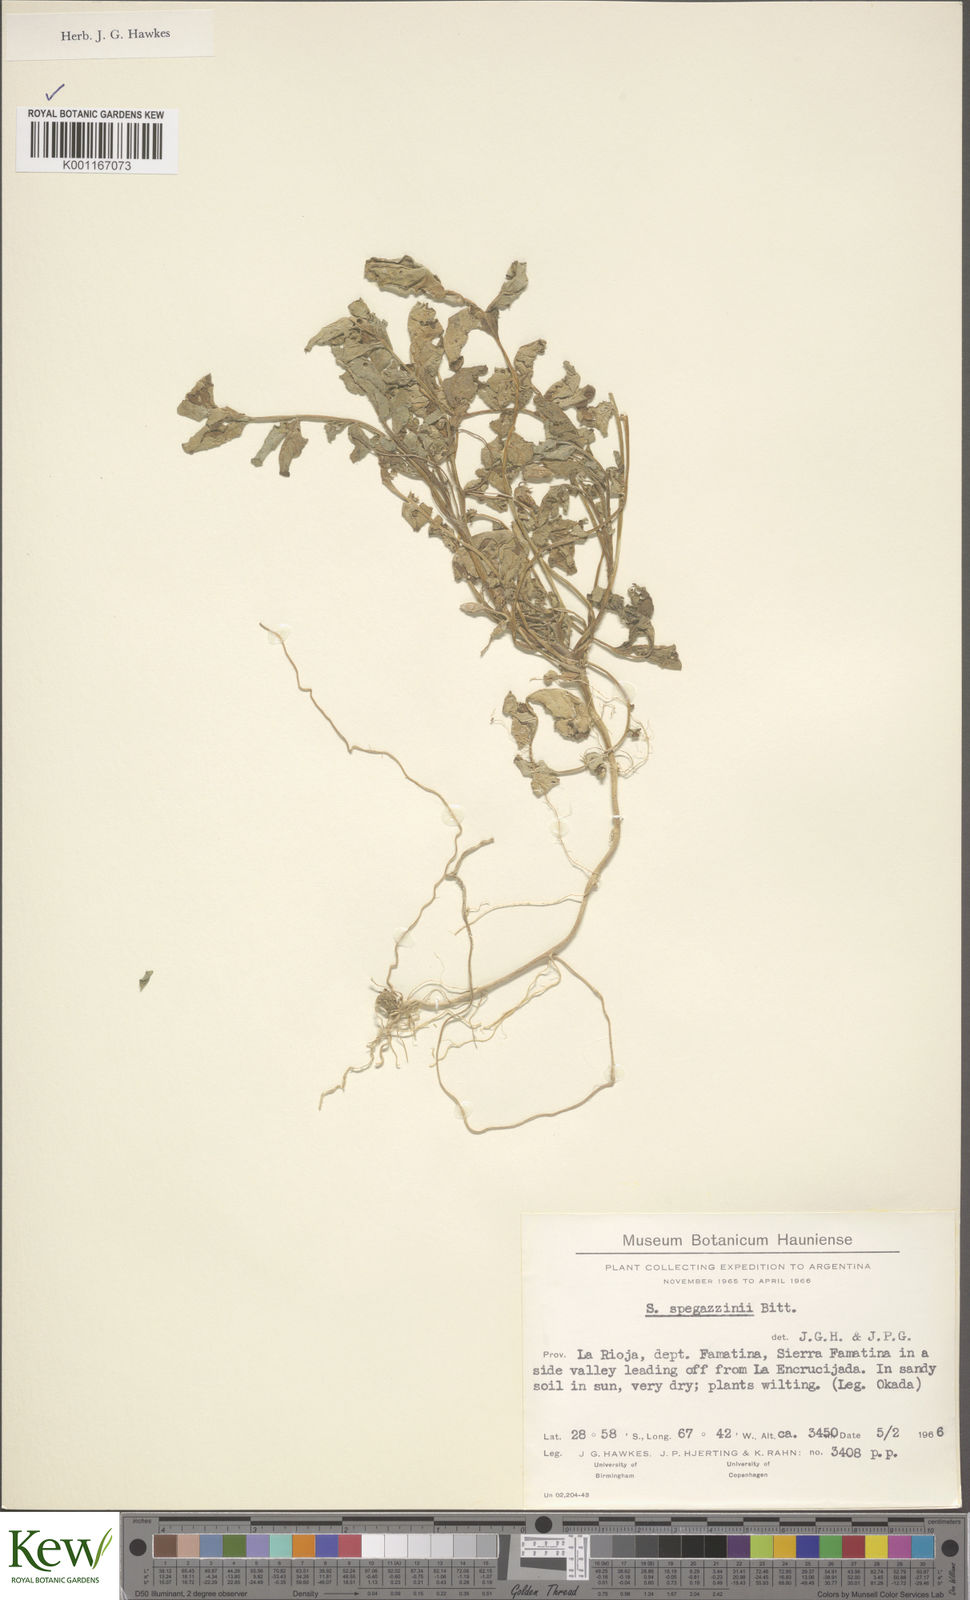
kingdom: Plantae
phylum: Tracheophyta
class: Magnoliopsida
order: Solanales
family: Solanaceae
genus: Solanum
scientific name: Solanum brevicaule
